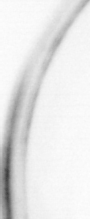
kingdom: Animalia
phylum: Chordata
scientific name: Chordata
